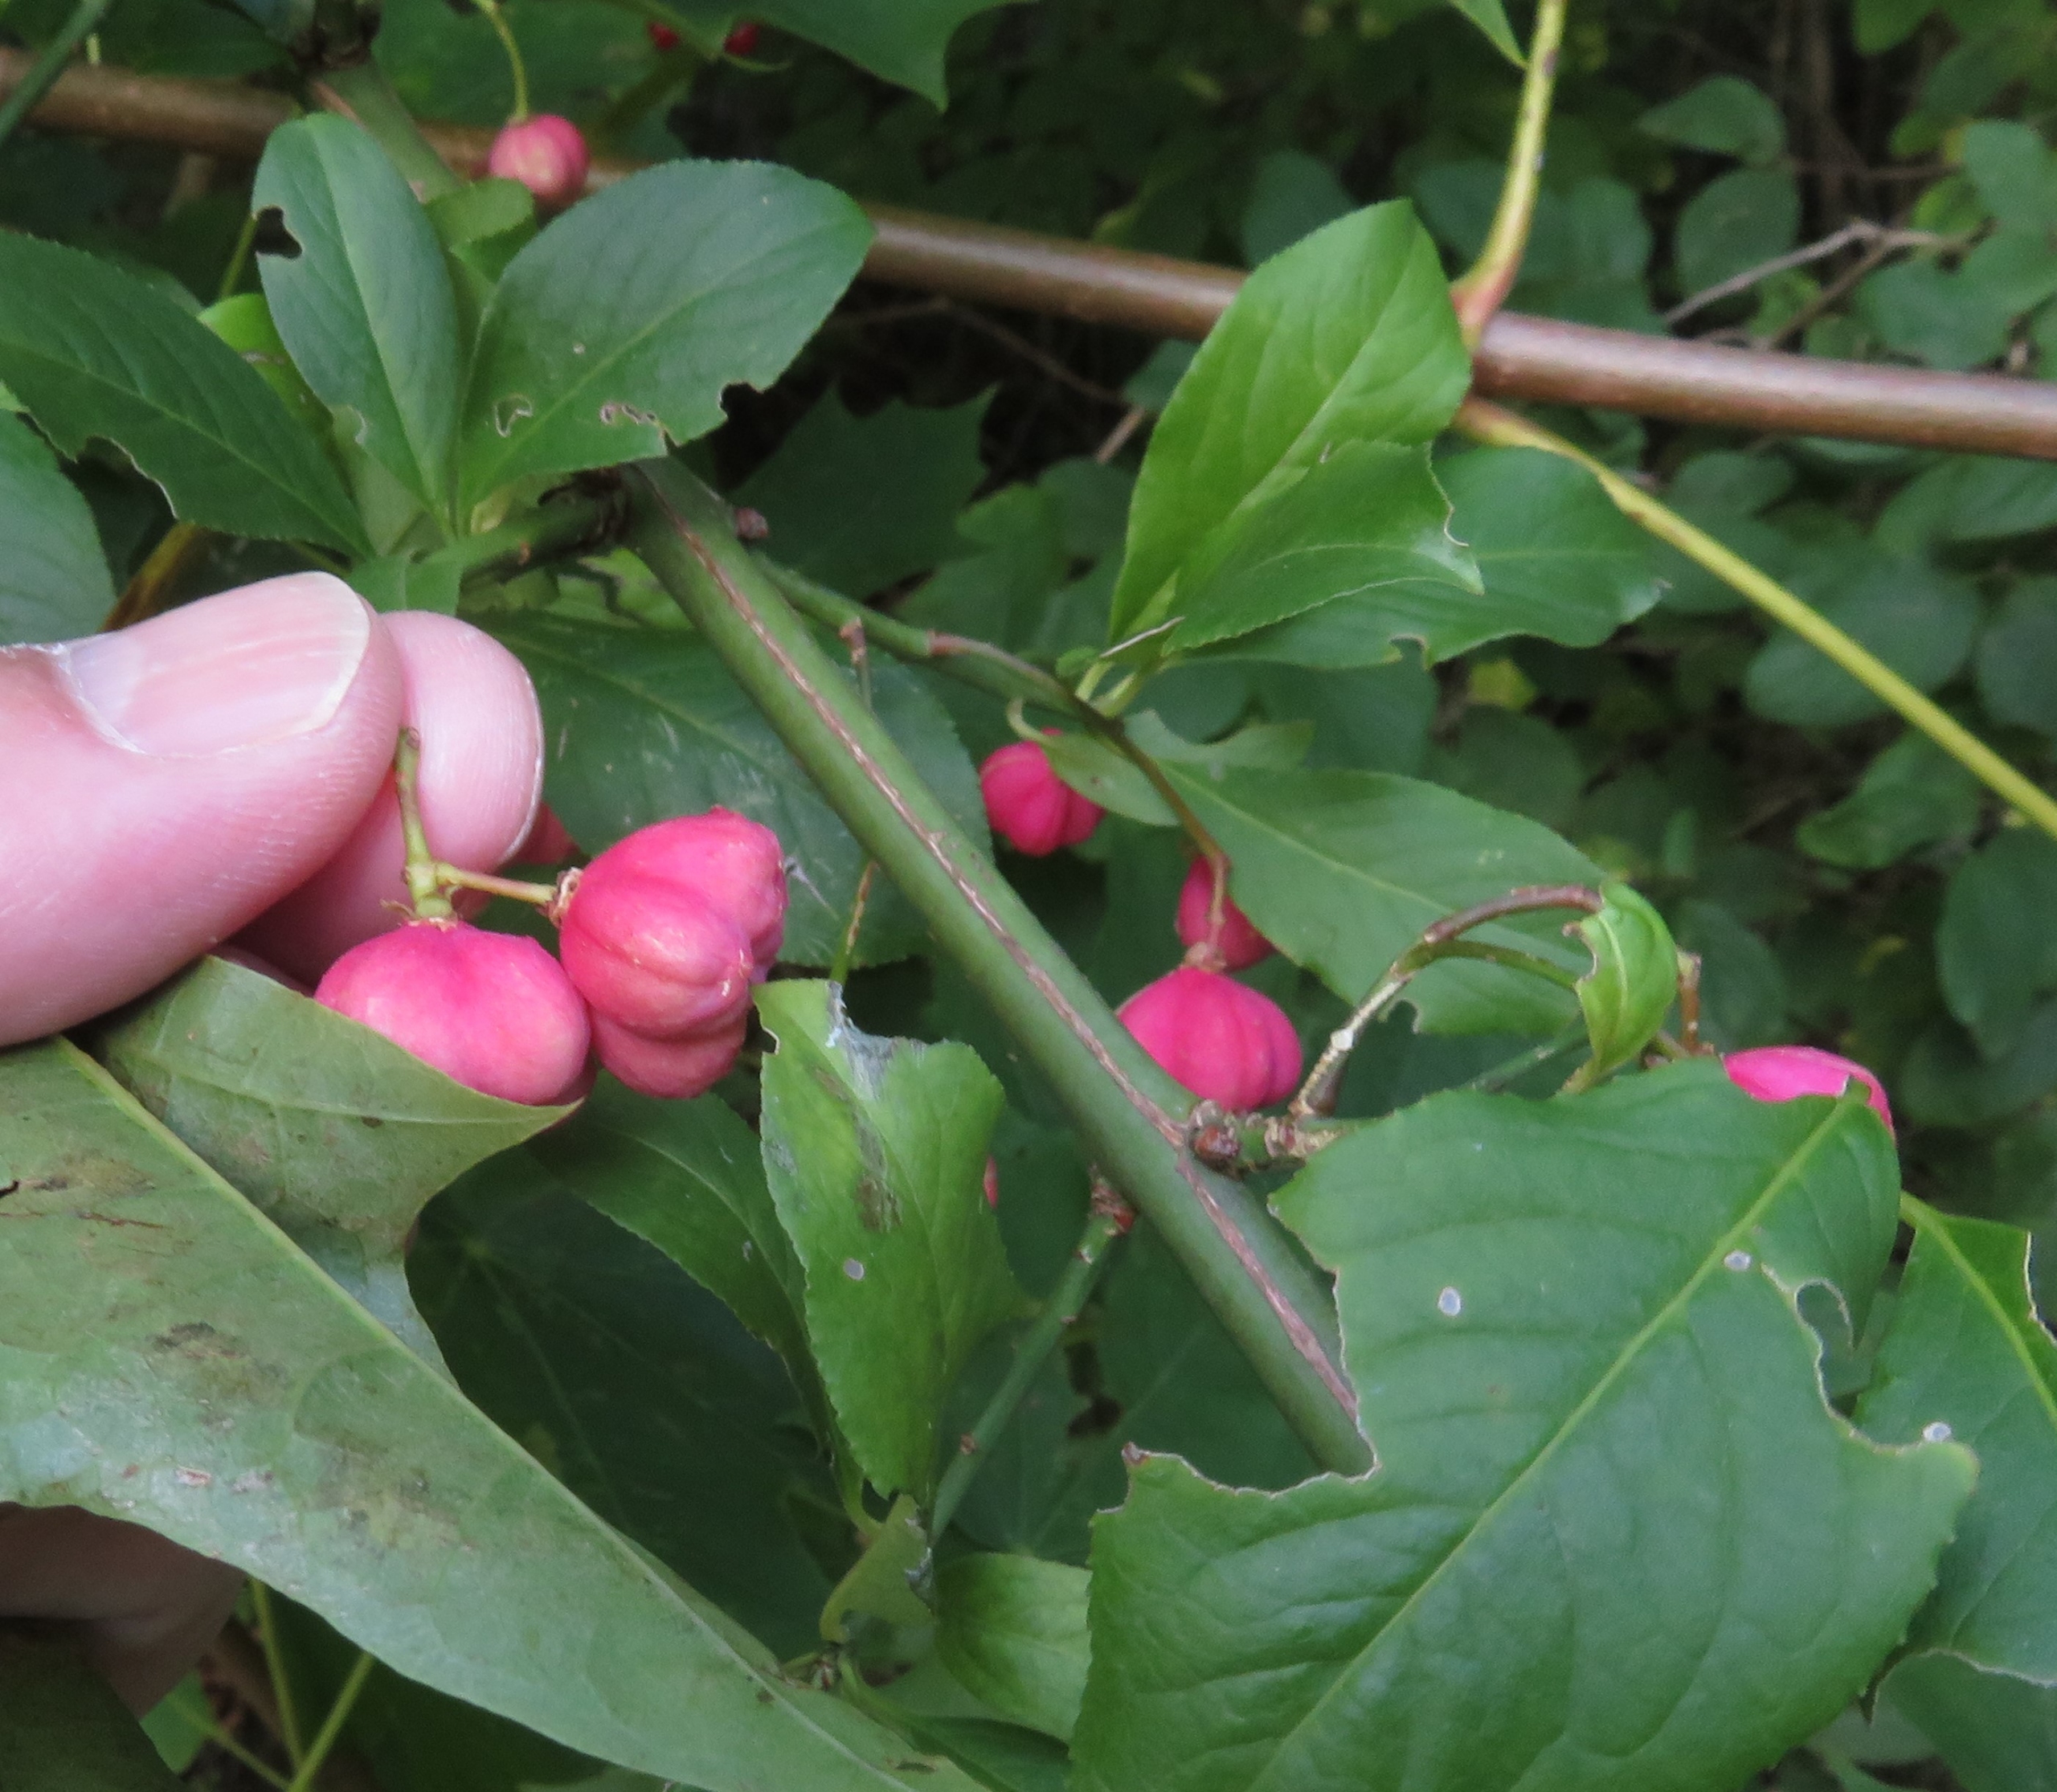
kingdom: Plantae
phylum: Tracheophyta
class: Magnoliopsida
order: Celastrales
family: Celastraceae
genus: Euonymus
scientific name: Euonymus europaeus
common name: Benved
